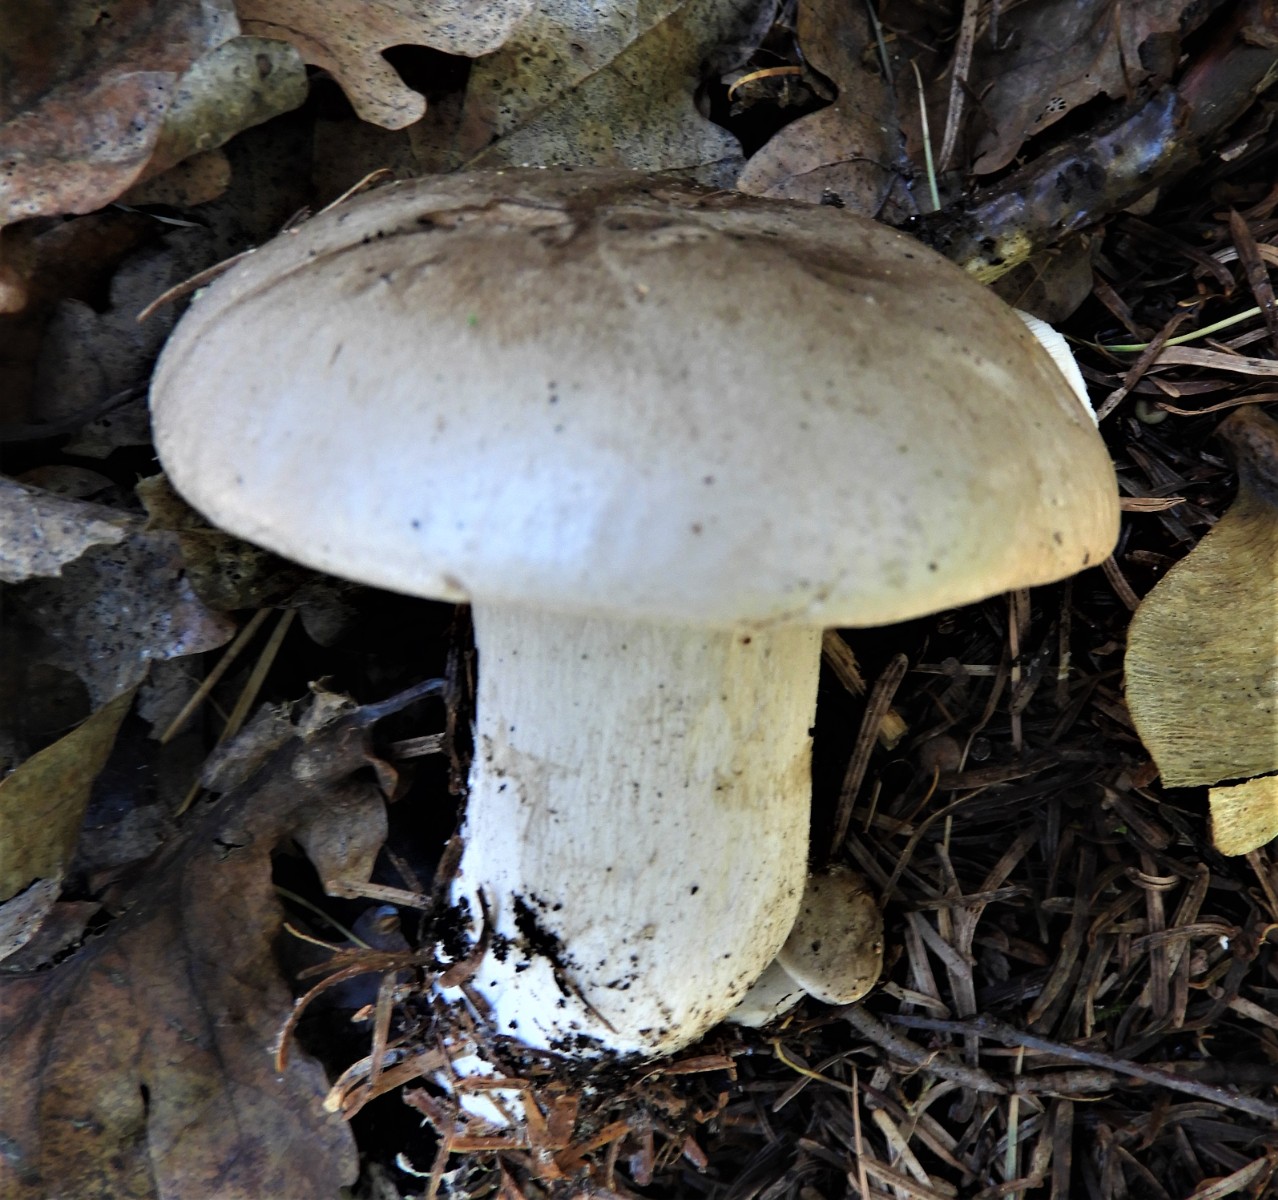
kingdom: Fungi
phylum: Basidiomycota
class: Agaricomycetes
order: Agaricales
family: Tricholomataceae
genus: Clitocybe
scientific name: Clitocybe nebularis
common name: tåge-tragthat
